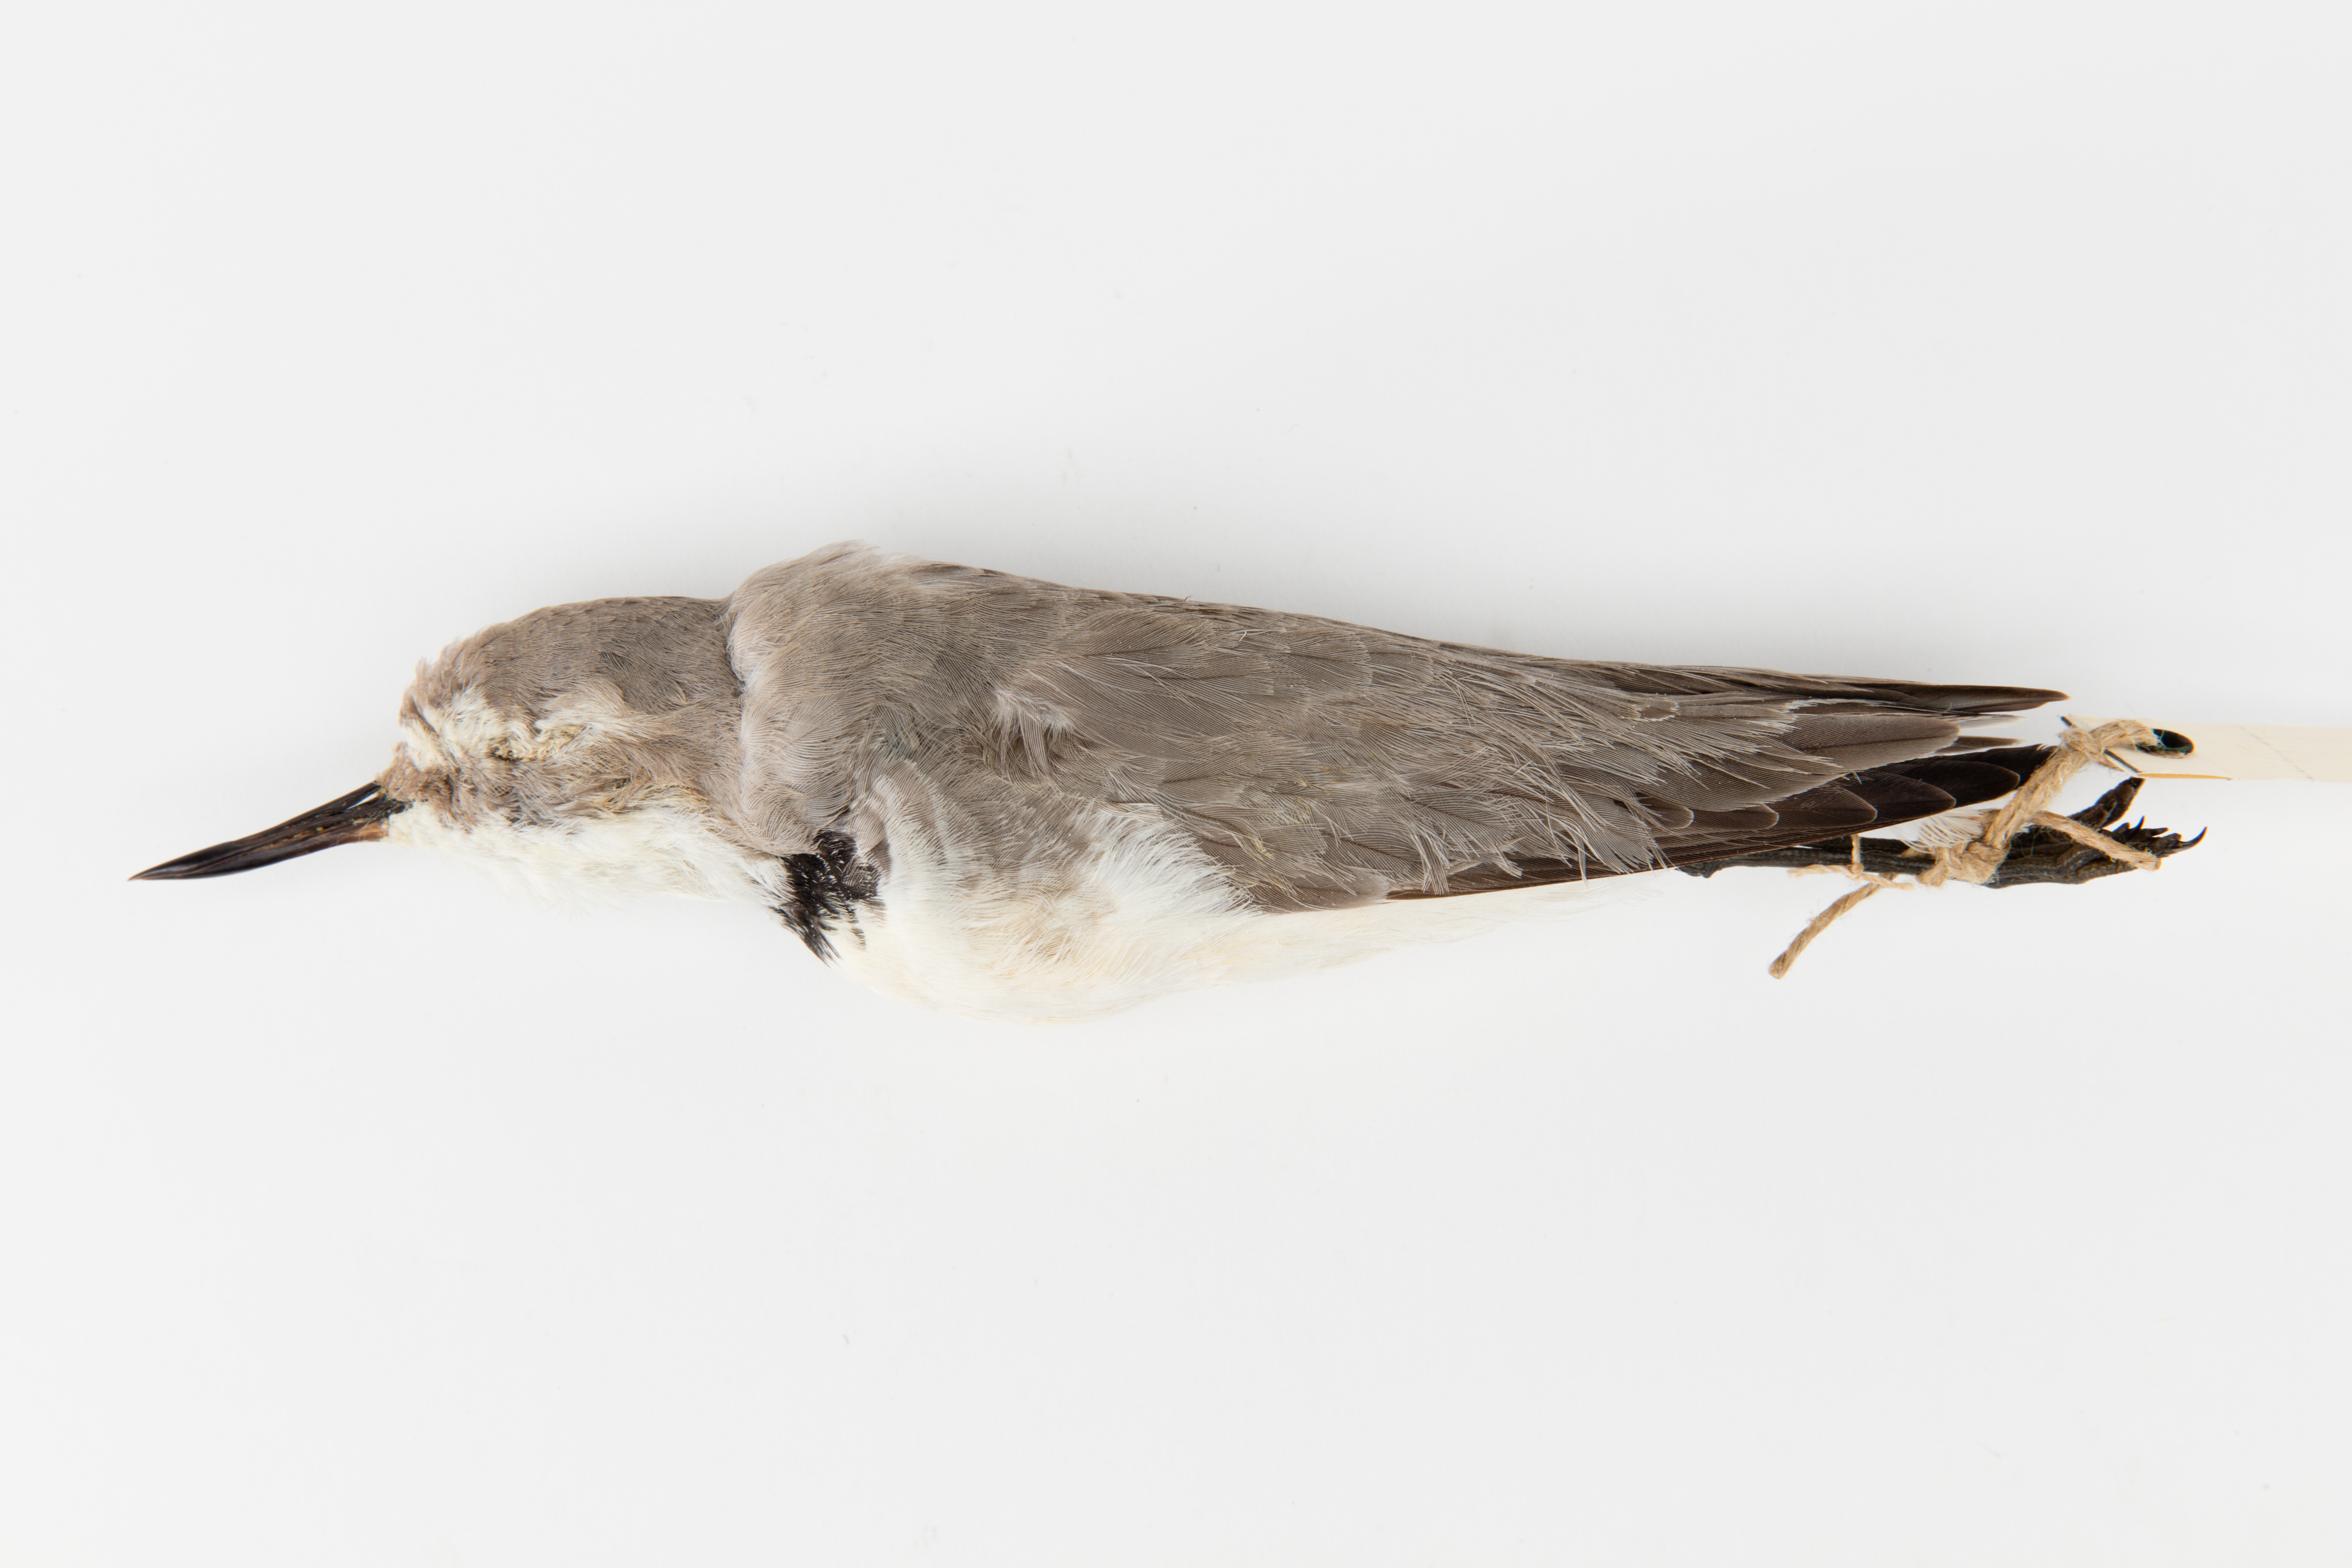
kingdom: Animalia
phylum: Chordata
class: Aves
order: Charadriiformes
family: Charadriidae
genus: Charadrius
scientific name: Charadrius frontalis
